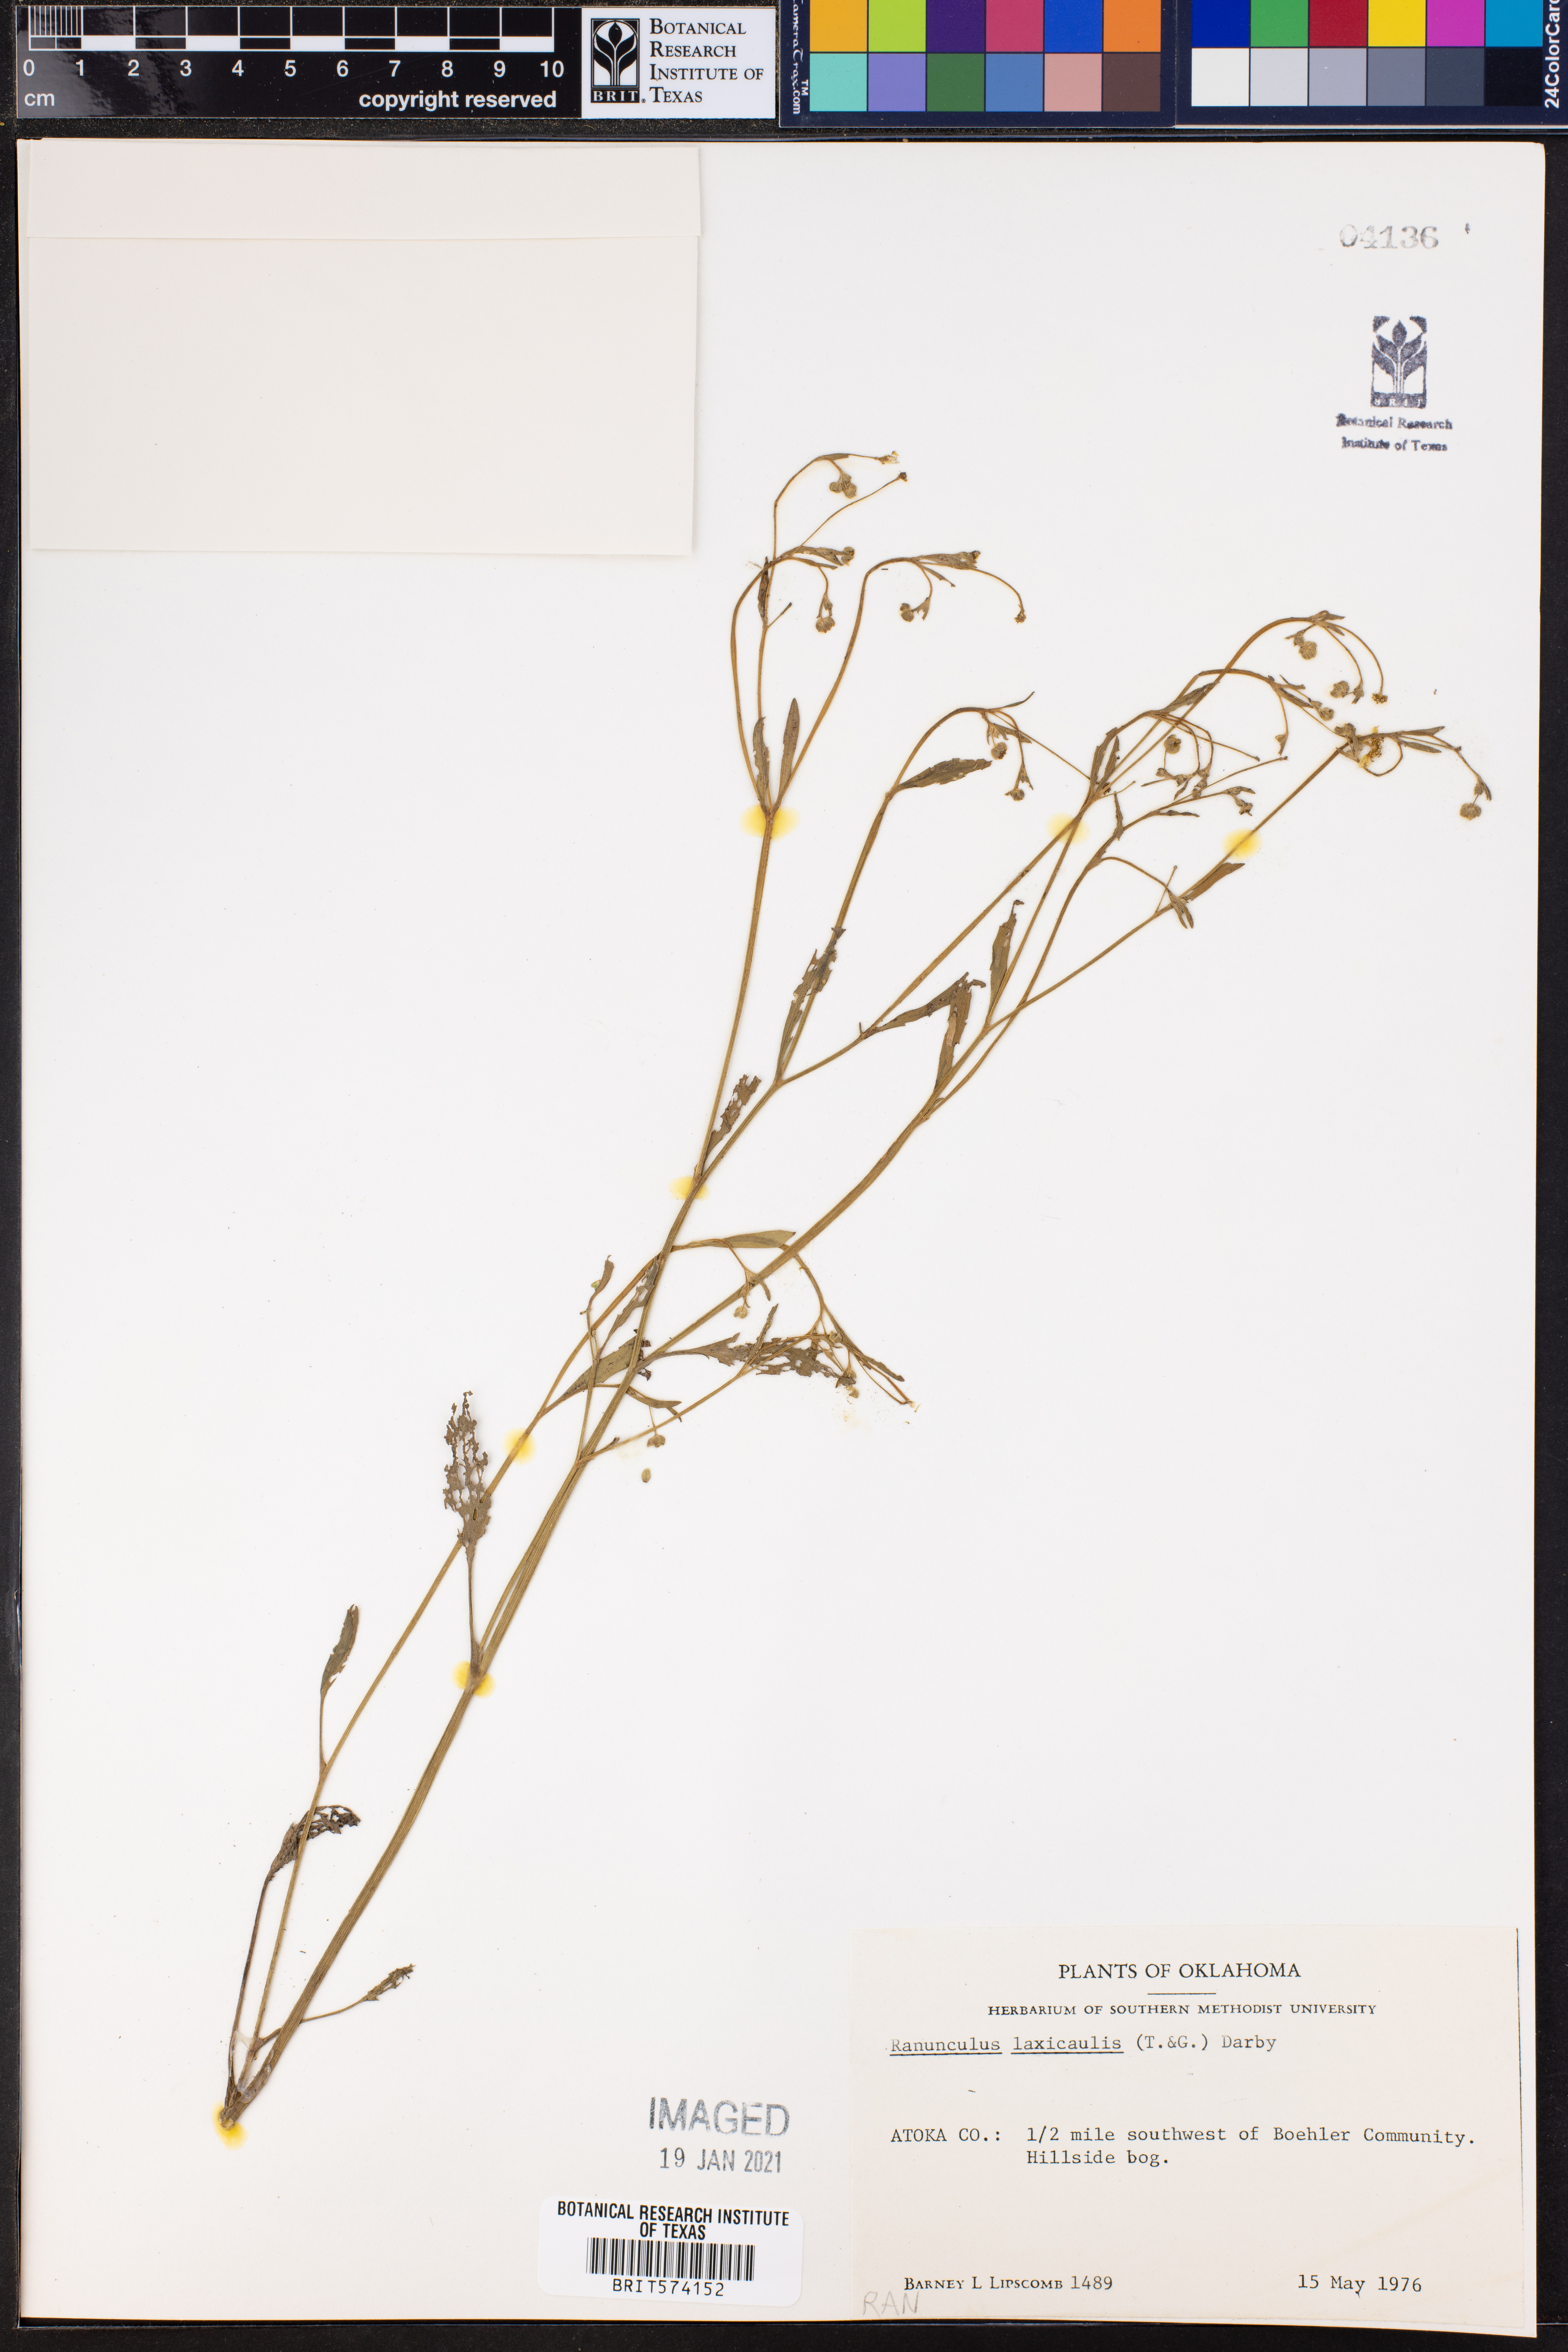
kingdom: Plantae
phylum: Tracheophyta
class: Magnoliopsida
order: Ranunculales
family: Ranunculaceae
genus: Ranunculus
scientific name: Ranunculus laxicaulis
